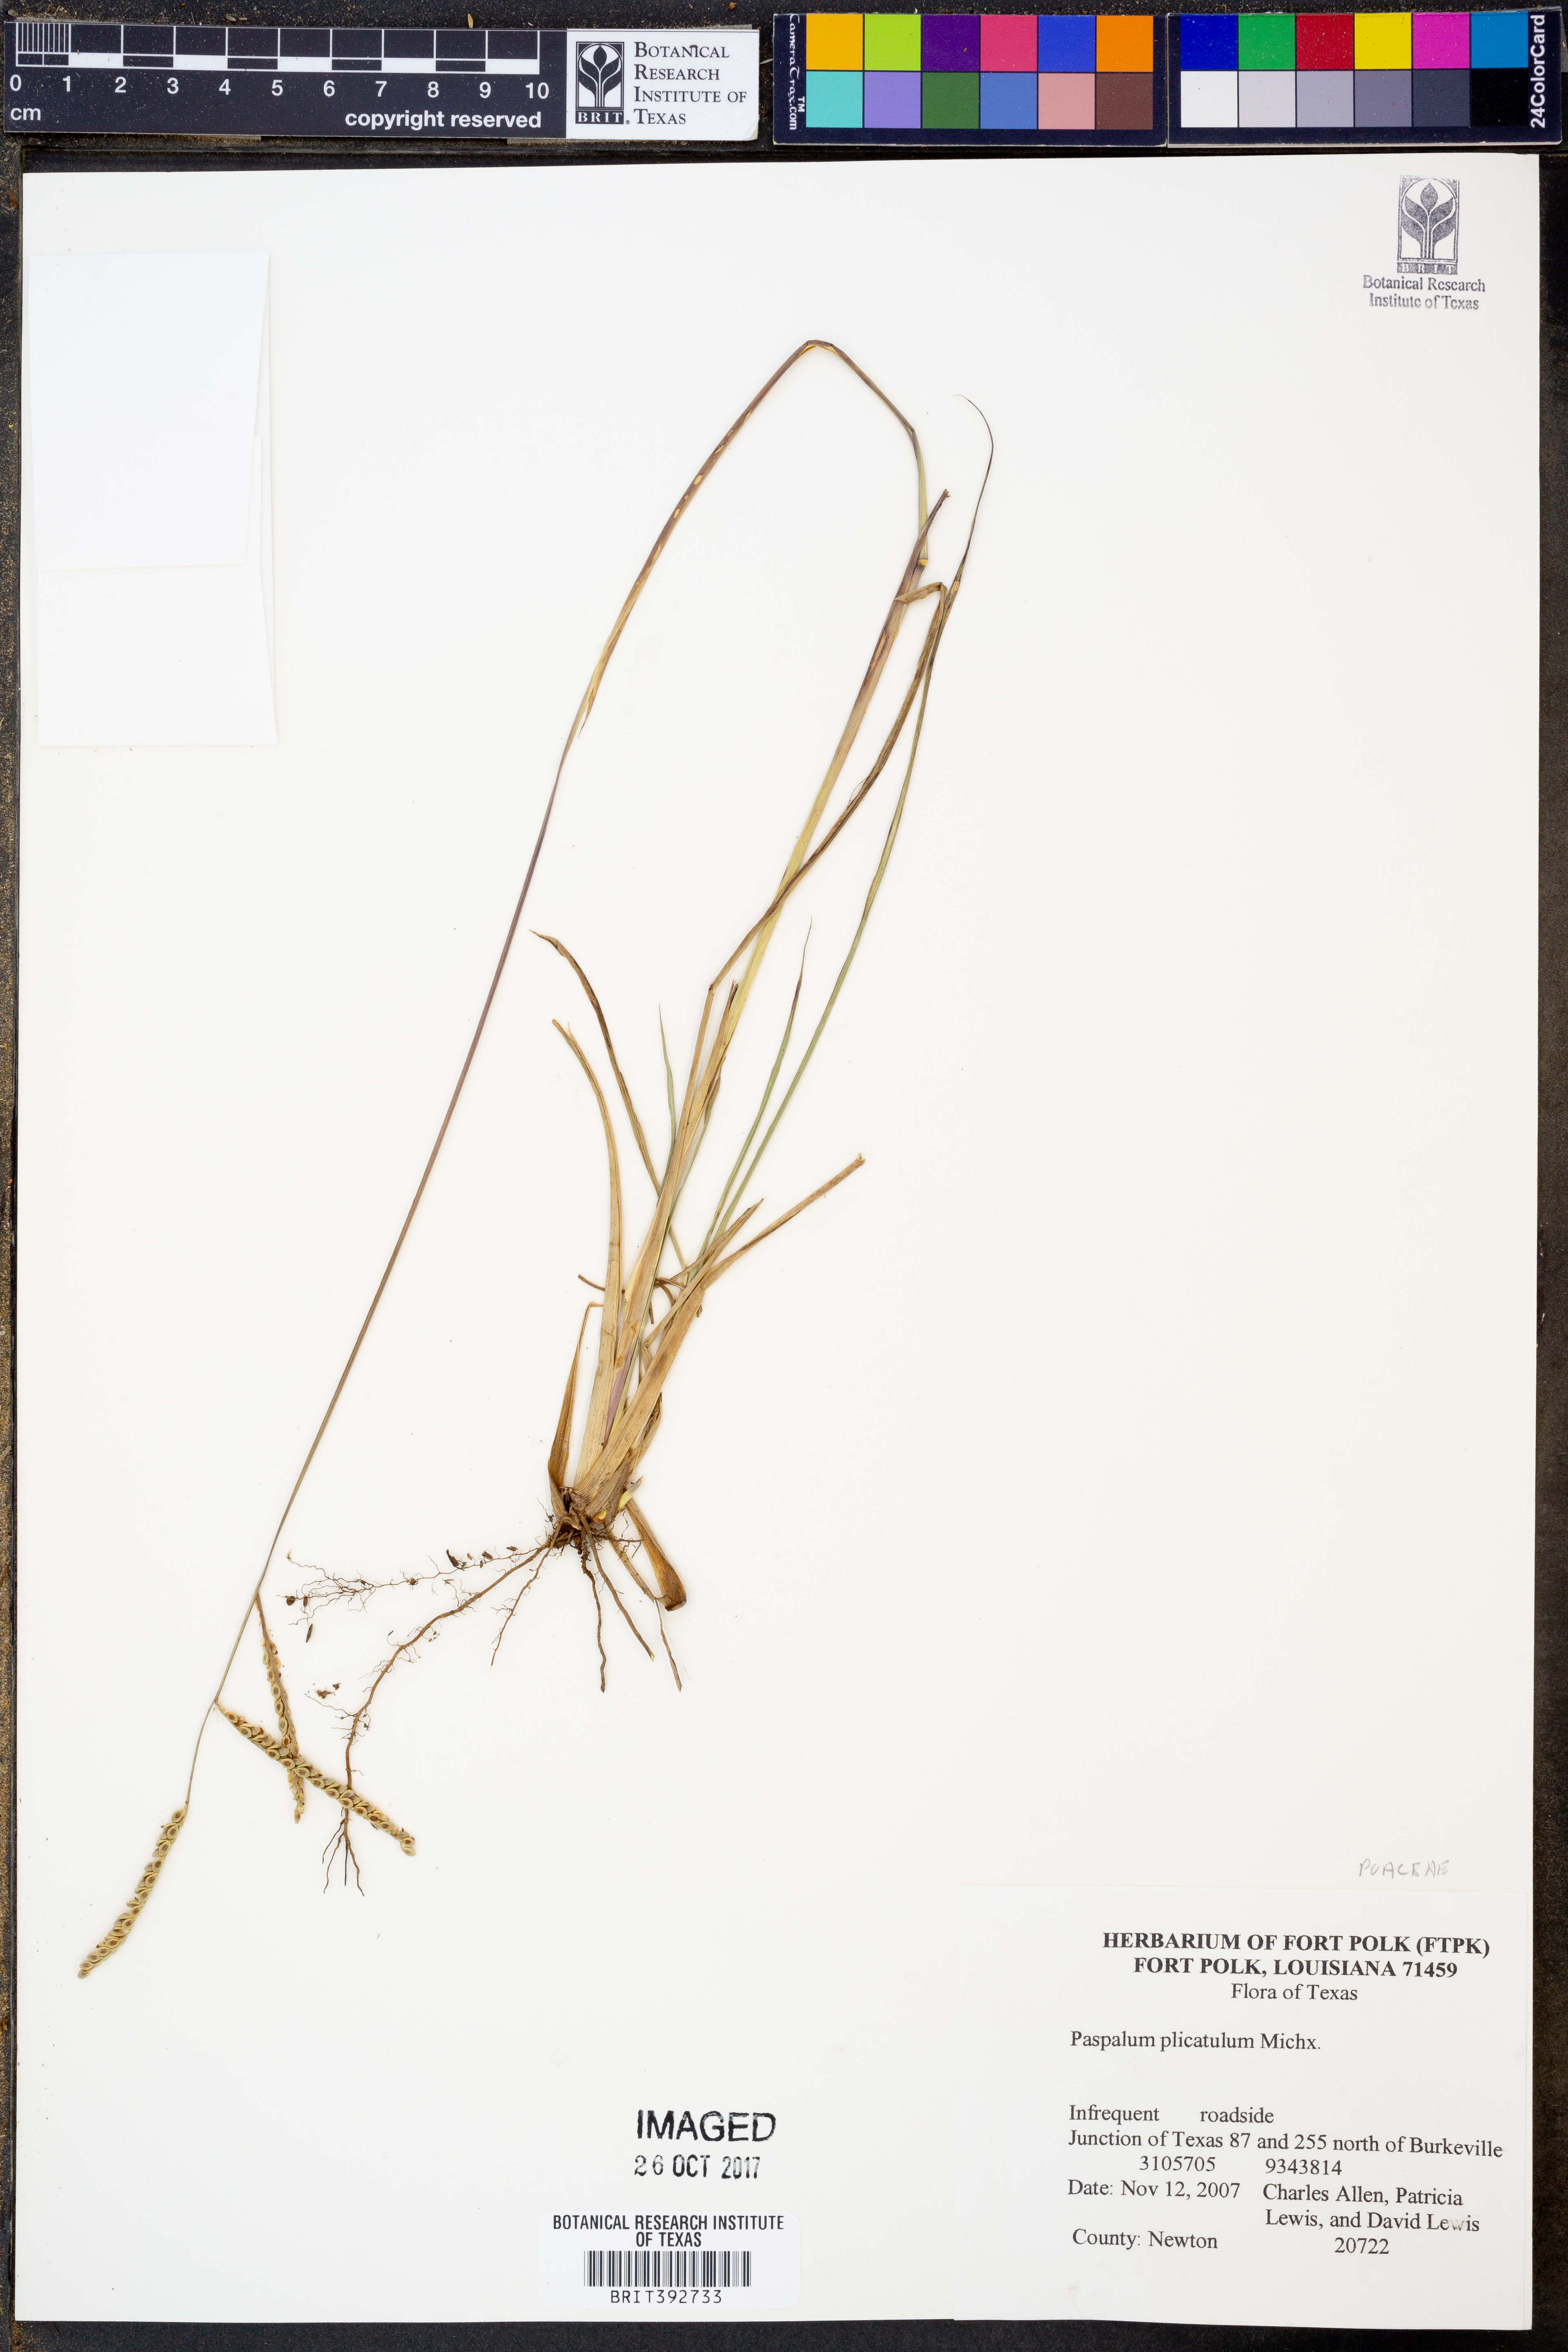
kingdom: Plantae
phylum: Tracheophyta
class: Liliopsida
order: Poales
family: Poaceae
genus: Paspalum
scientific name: Paspalum plicatulum
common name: Top paspalum
